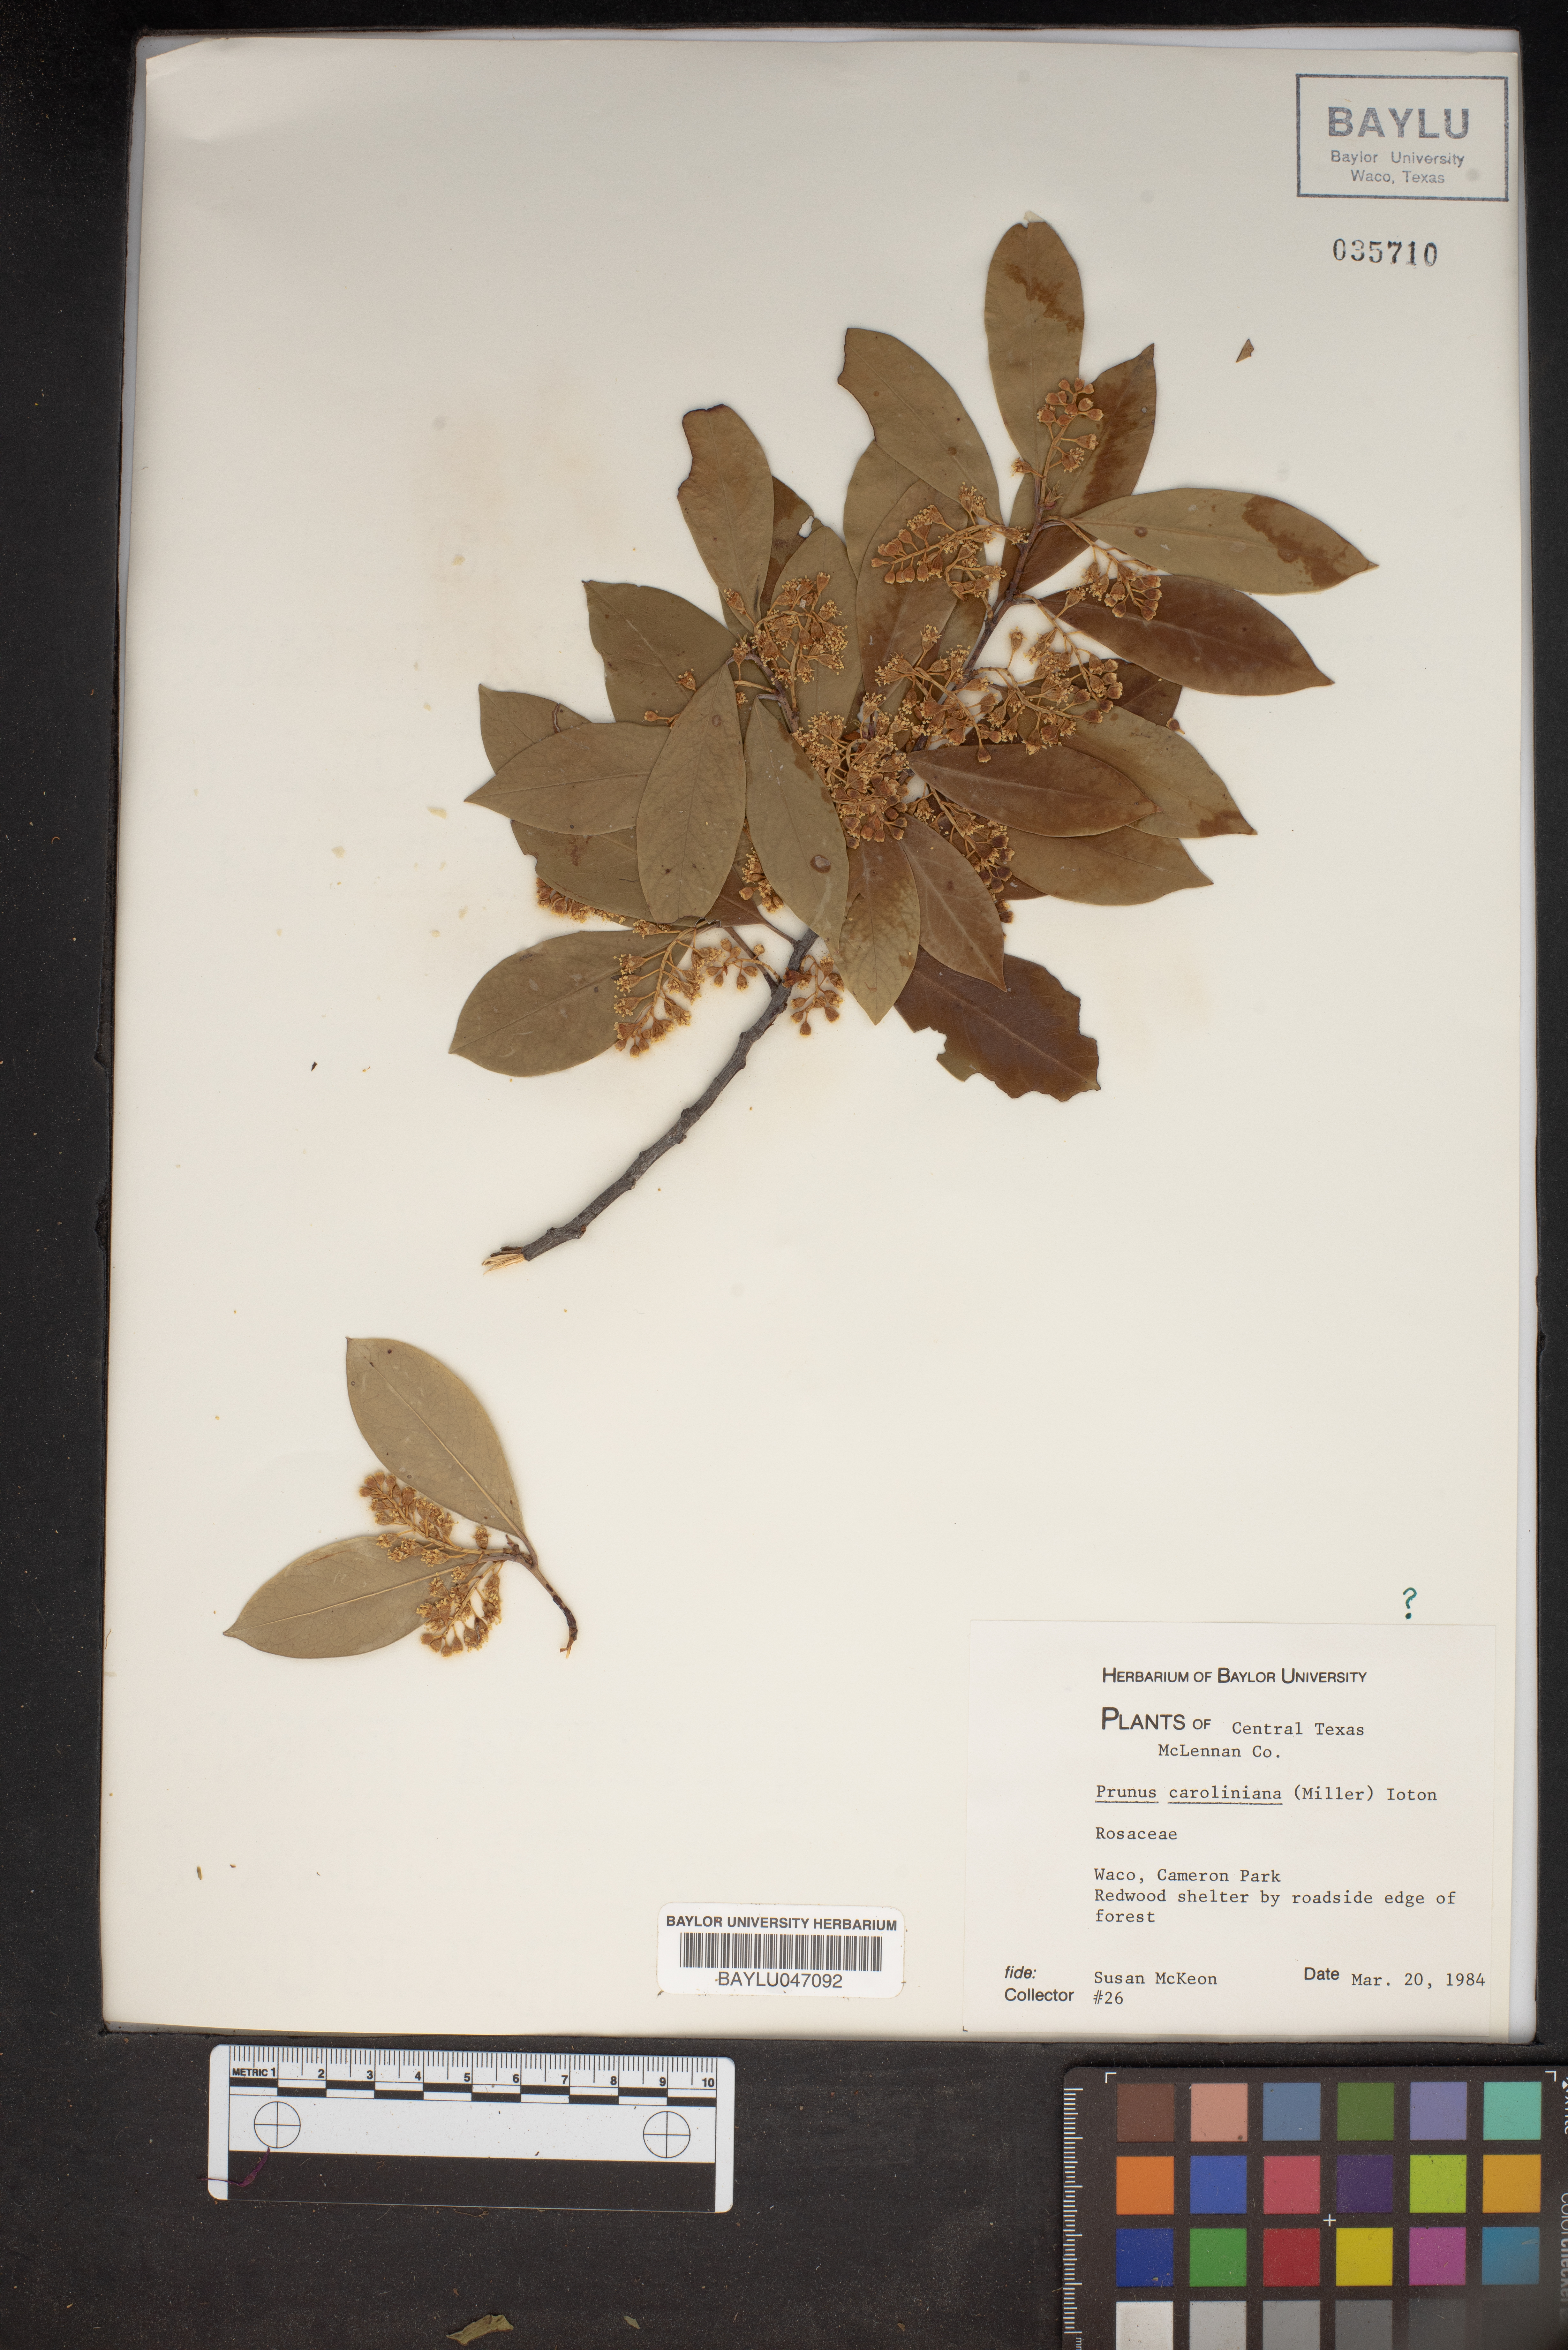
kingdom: Plantae
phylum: Tracheophyta
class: Magnoliopsida
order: Rosales
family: Rosaceae
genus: Prunus
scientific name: Prunus caroliniana
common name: Carolina laurel cherry
